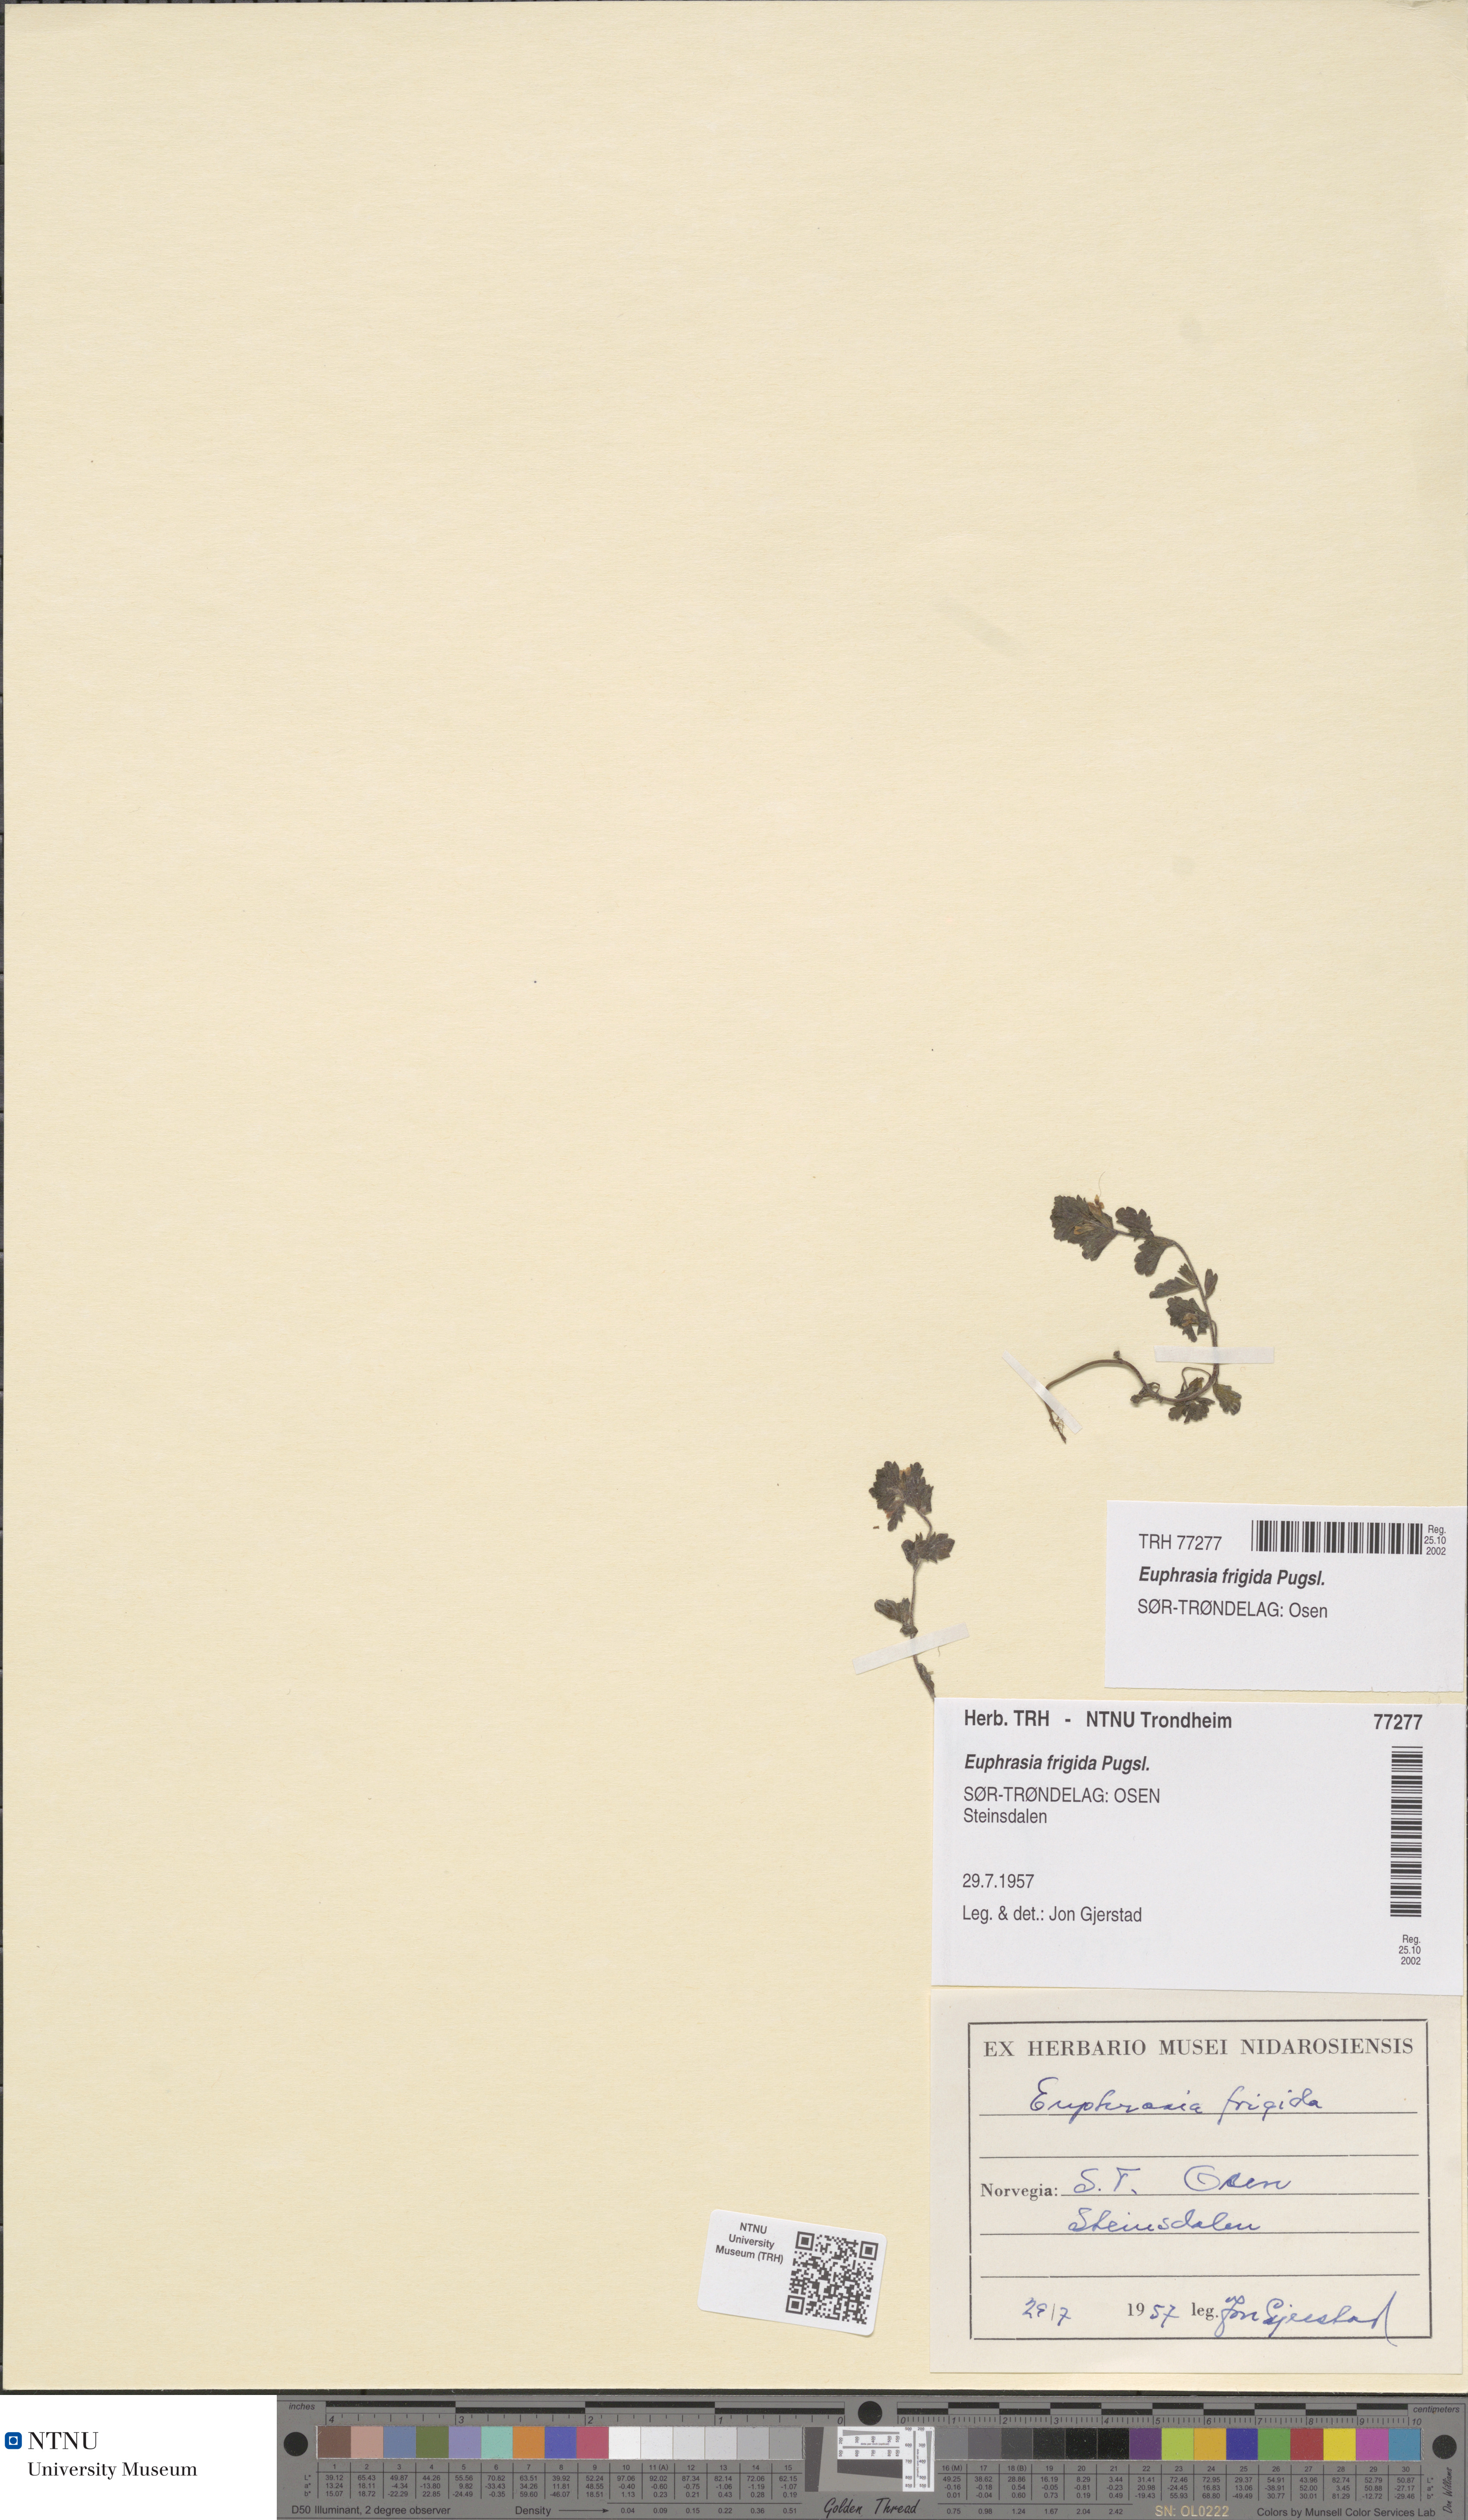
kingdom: Plantae
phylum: Tracheophyta
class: Magnoliopsida
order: Lamiales
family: Orobanchaceae
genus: Euphrasia
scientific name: Euphrasia wettsteinii
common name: Wettstein's eyebright
